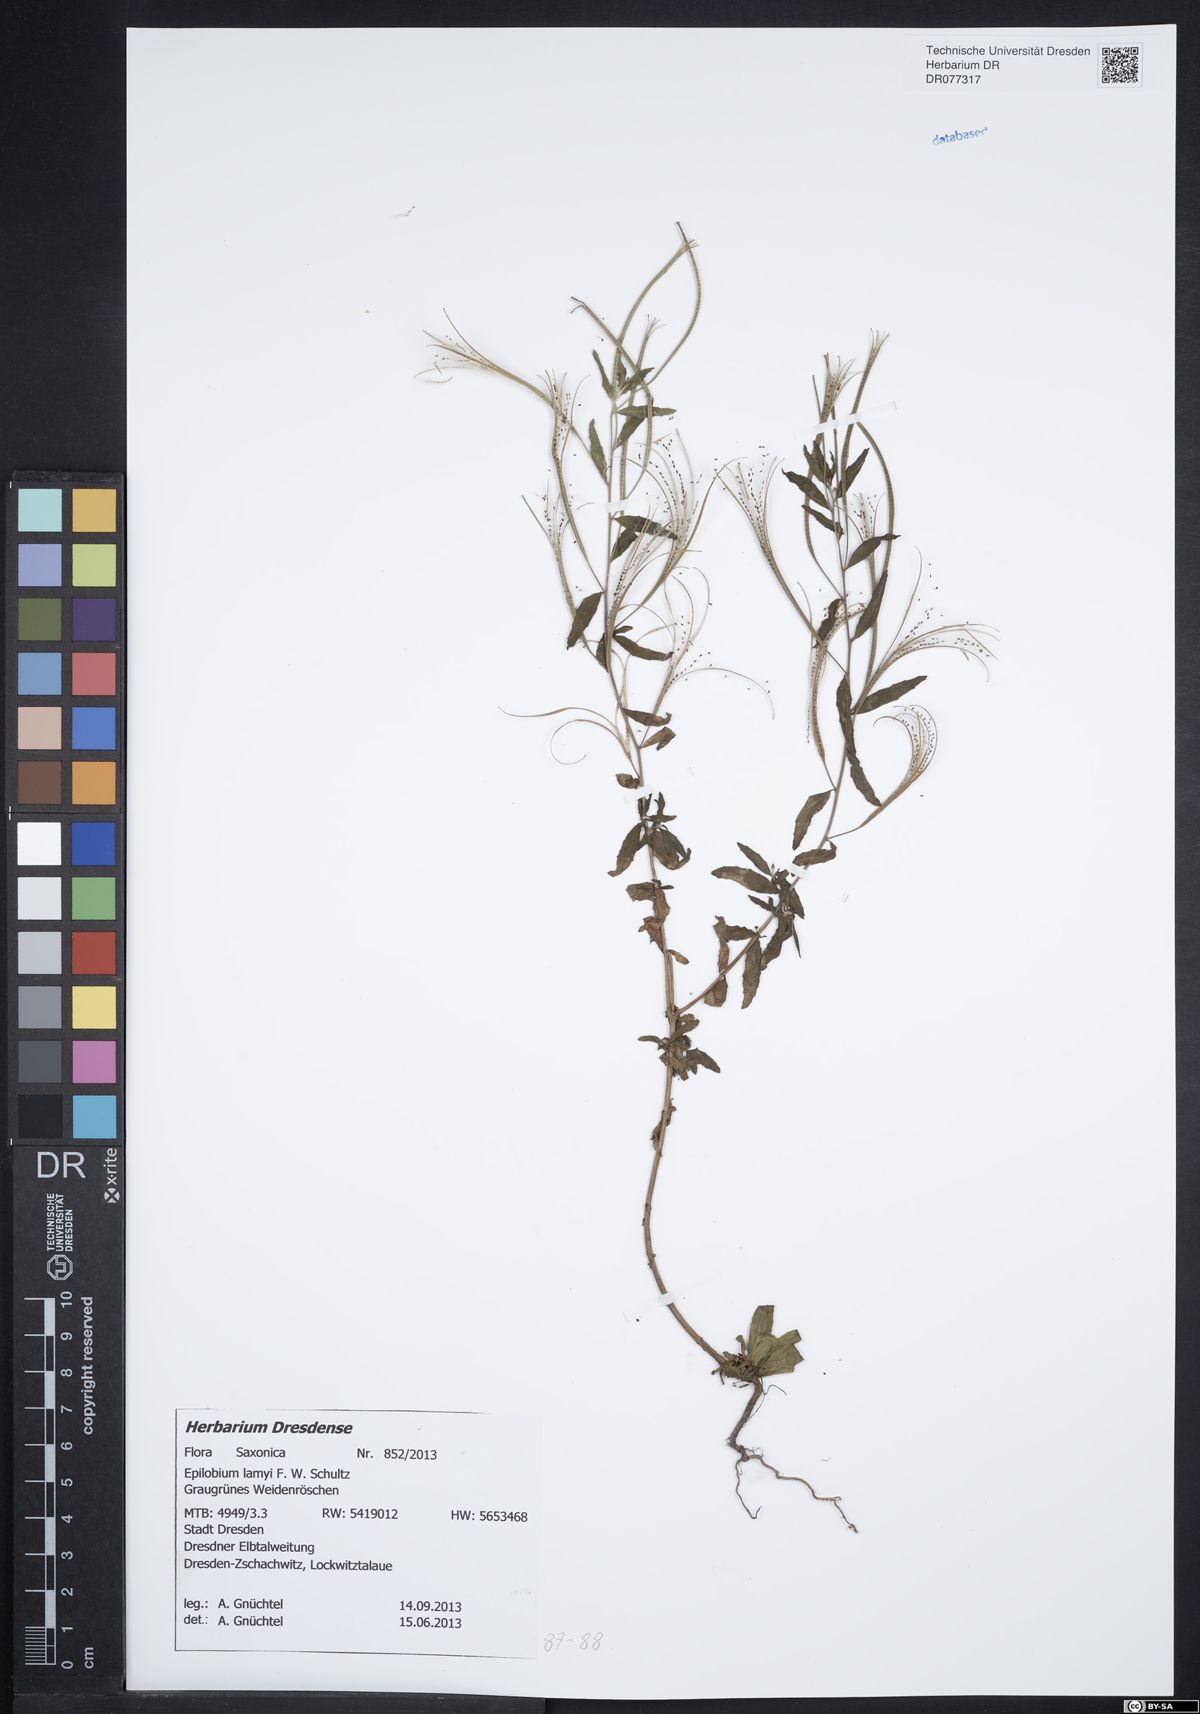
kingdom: Plantae
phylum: Tracheophyta
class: Magnoliopsida
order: Myrtales
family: Onagraceae
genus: Epilobium
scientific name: Epilobium lamyi
